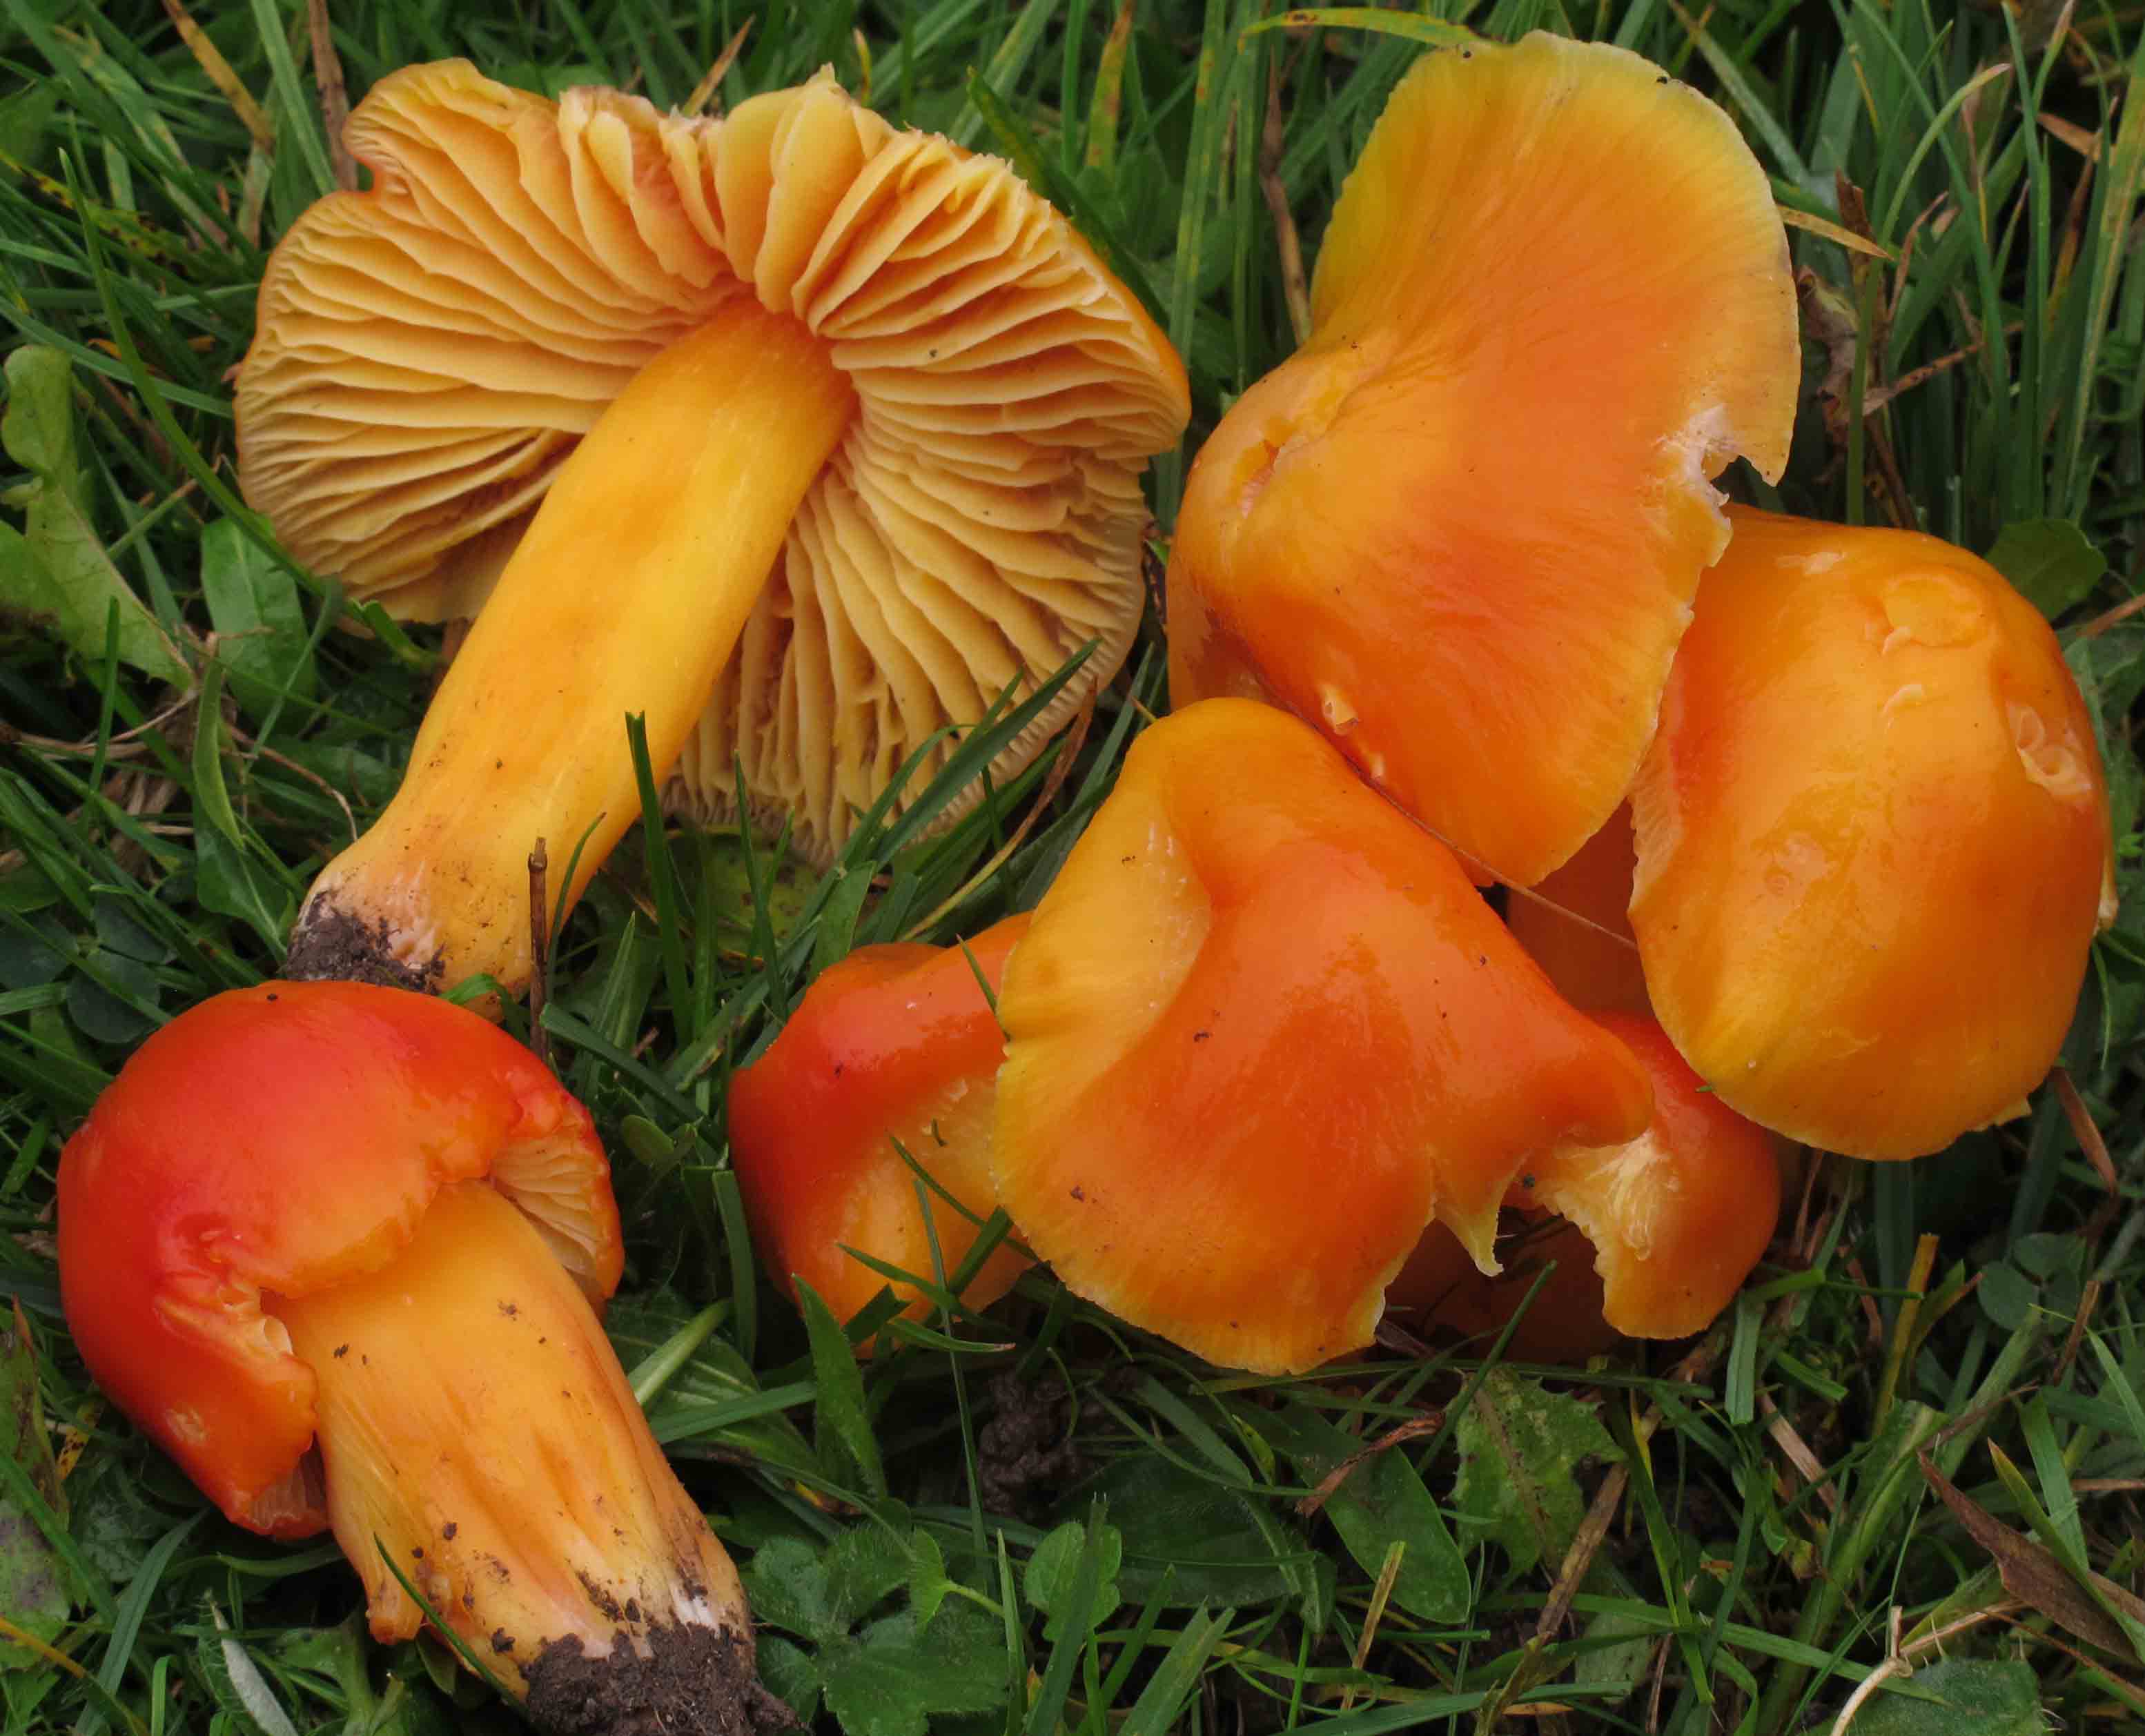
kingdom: Fungi
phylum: Basidiomycota
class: Agaricomycetes
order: Agaricales
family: Hygrophoraceae
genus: Hygrocybe
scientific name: Hygrocybe aurantiosplendens
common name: orangegylden vokshat
